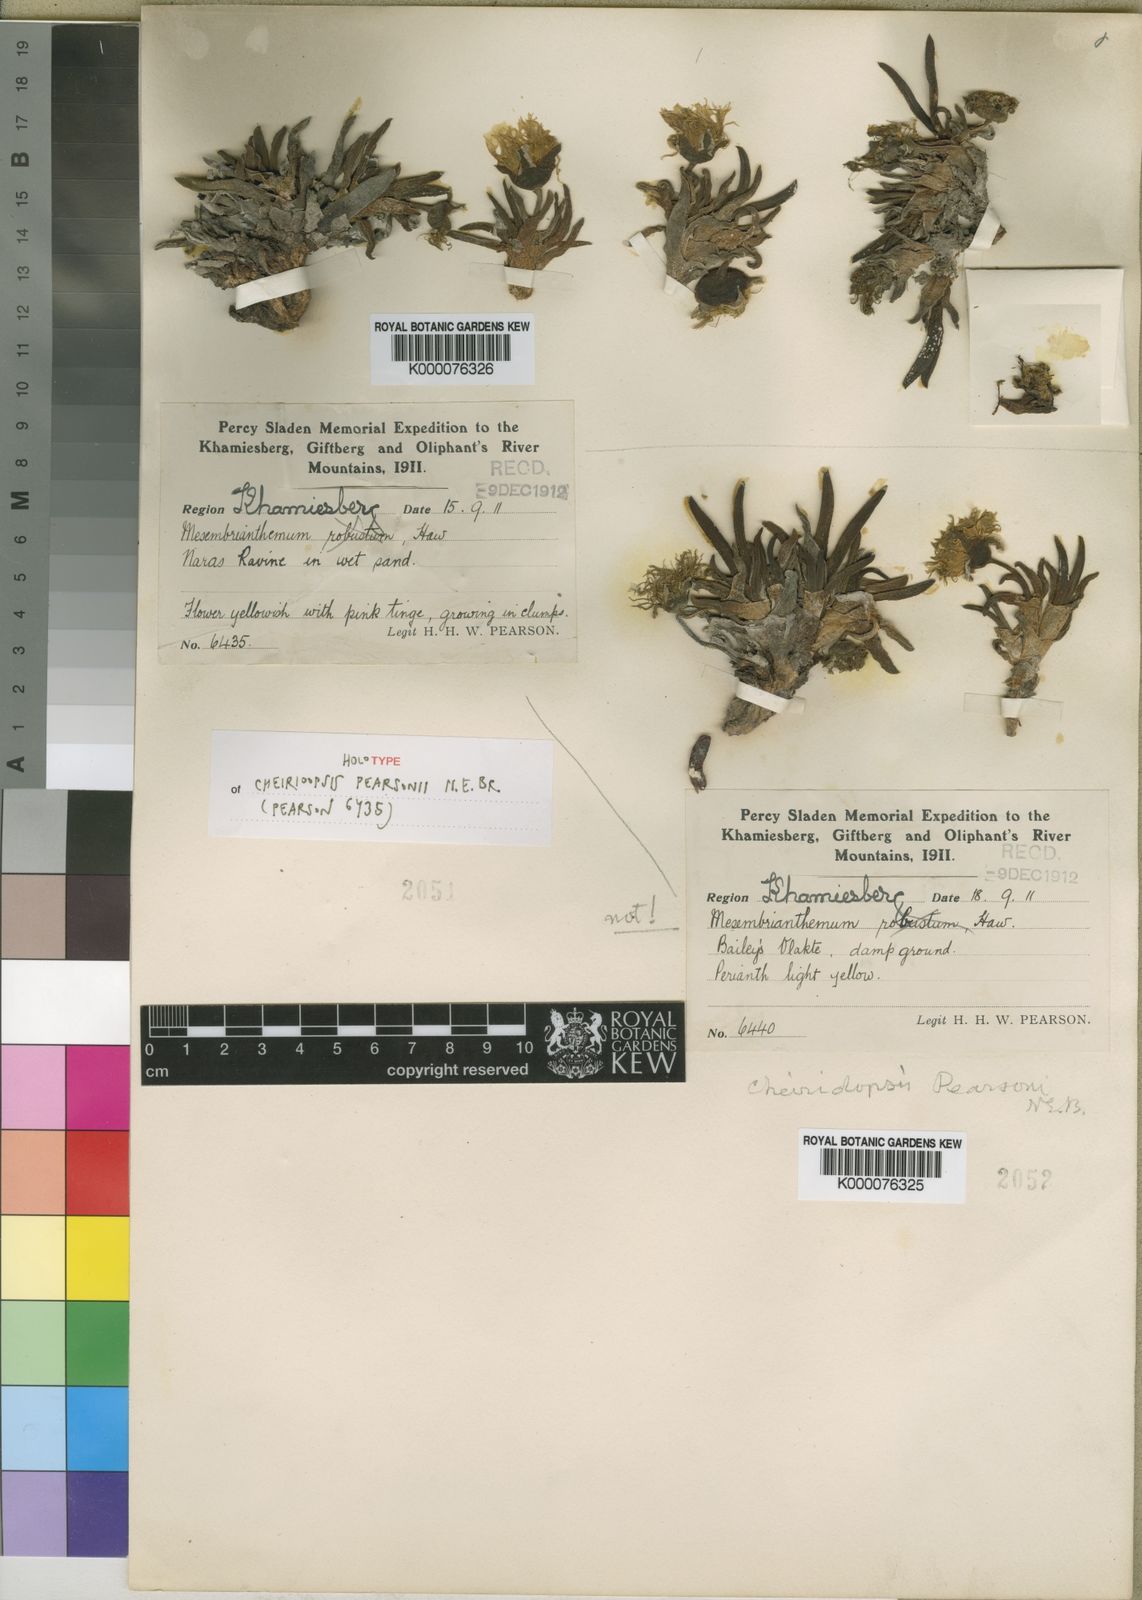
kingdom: Plantae
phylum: Tracheophyta
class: Magnoliopsida
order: Caryophyllales
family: Aizoaceae
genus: Cheiridopsis
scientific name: Cheiridopsis pearsonii
